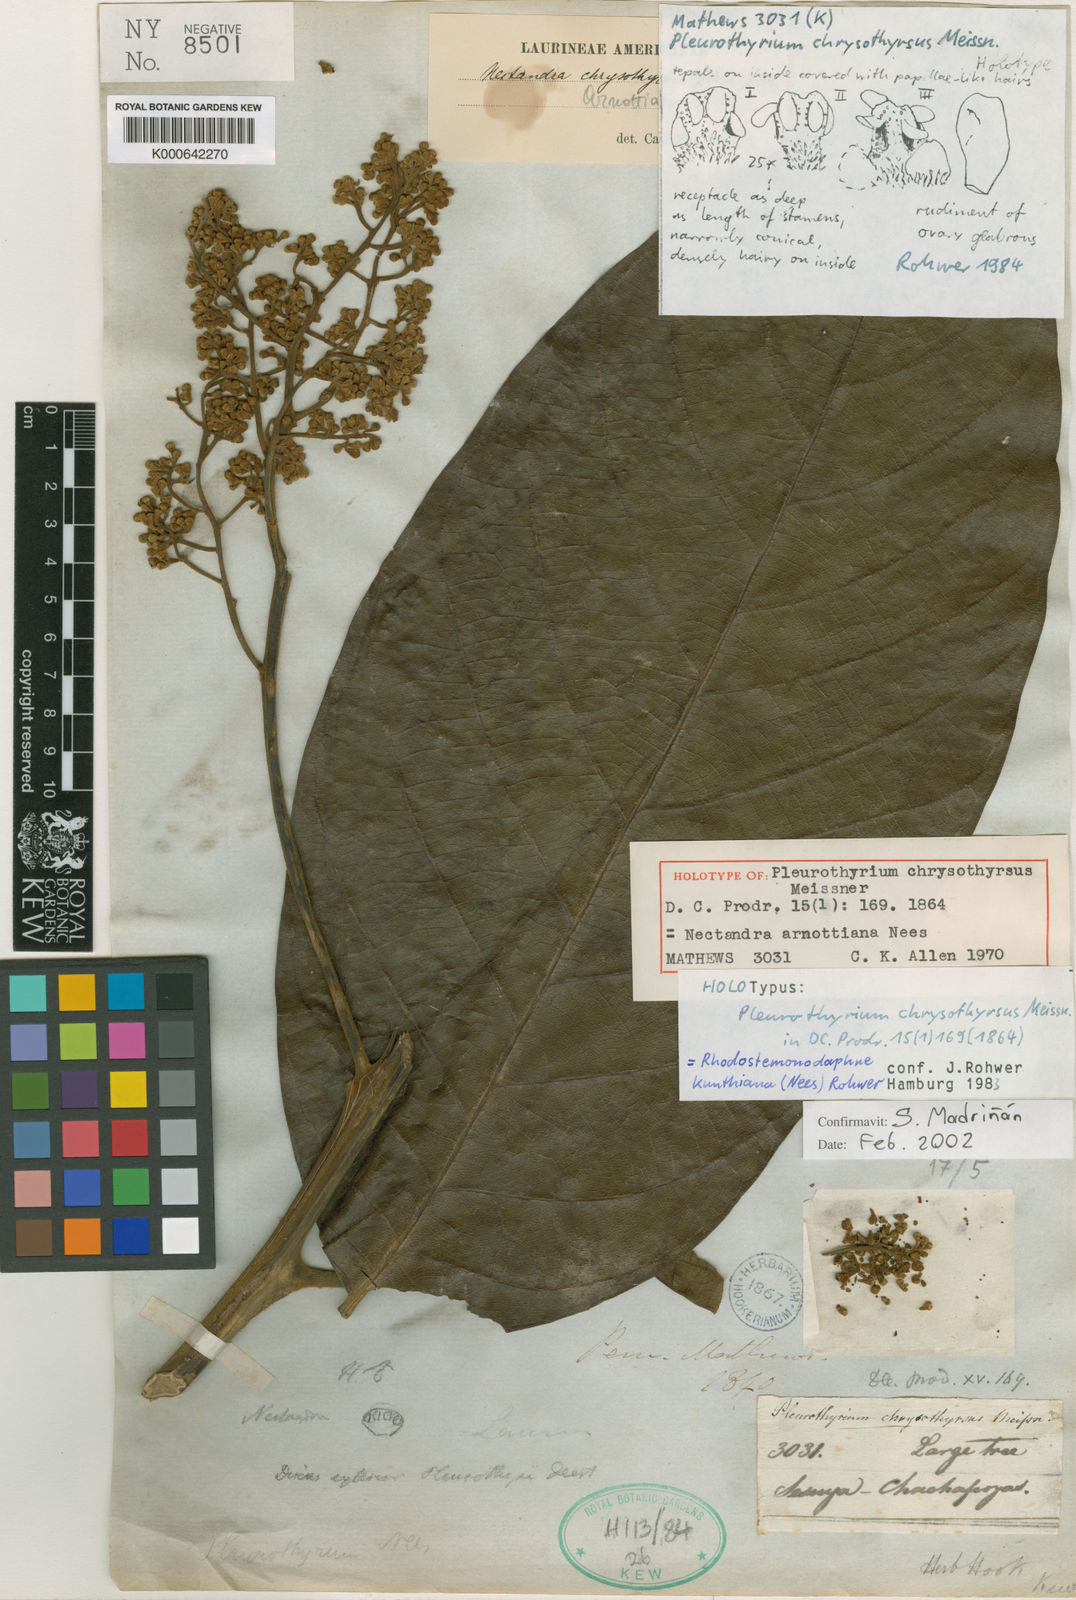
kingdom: Plantae
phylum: Tracheophyta
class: Magnoliopsida
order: Laurales
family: Lauraceae
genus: Rhodostemonodaphne
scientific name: Rhodostemonodaphne kunthiana
